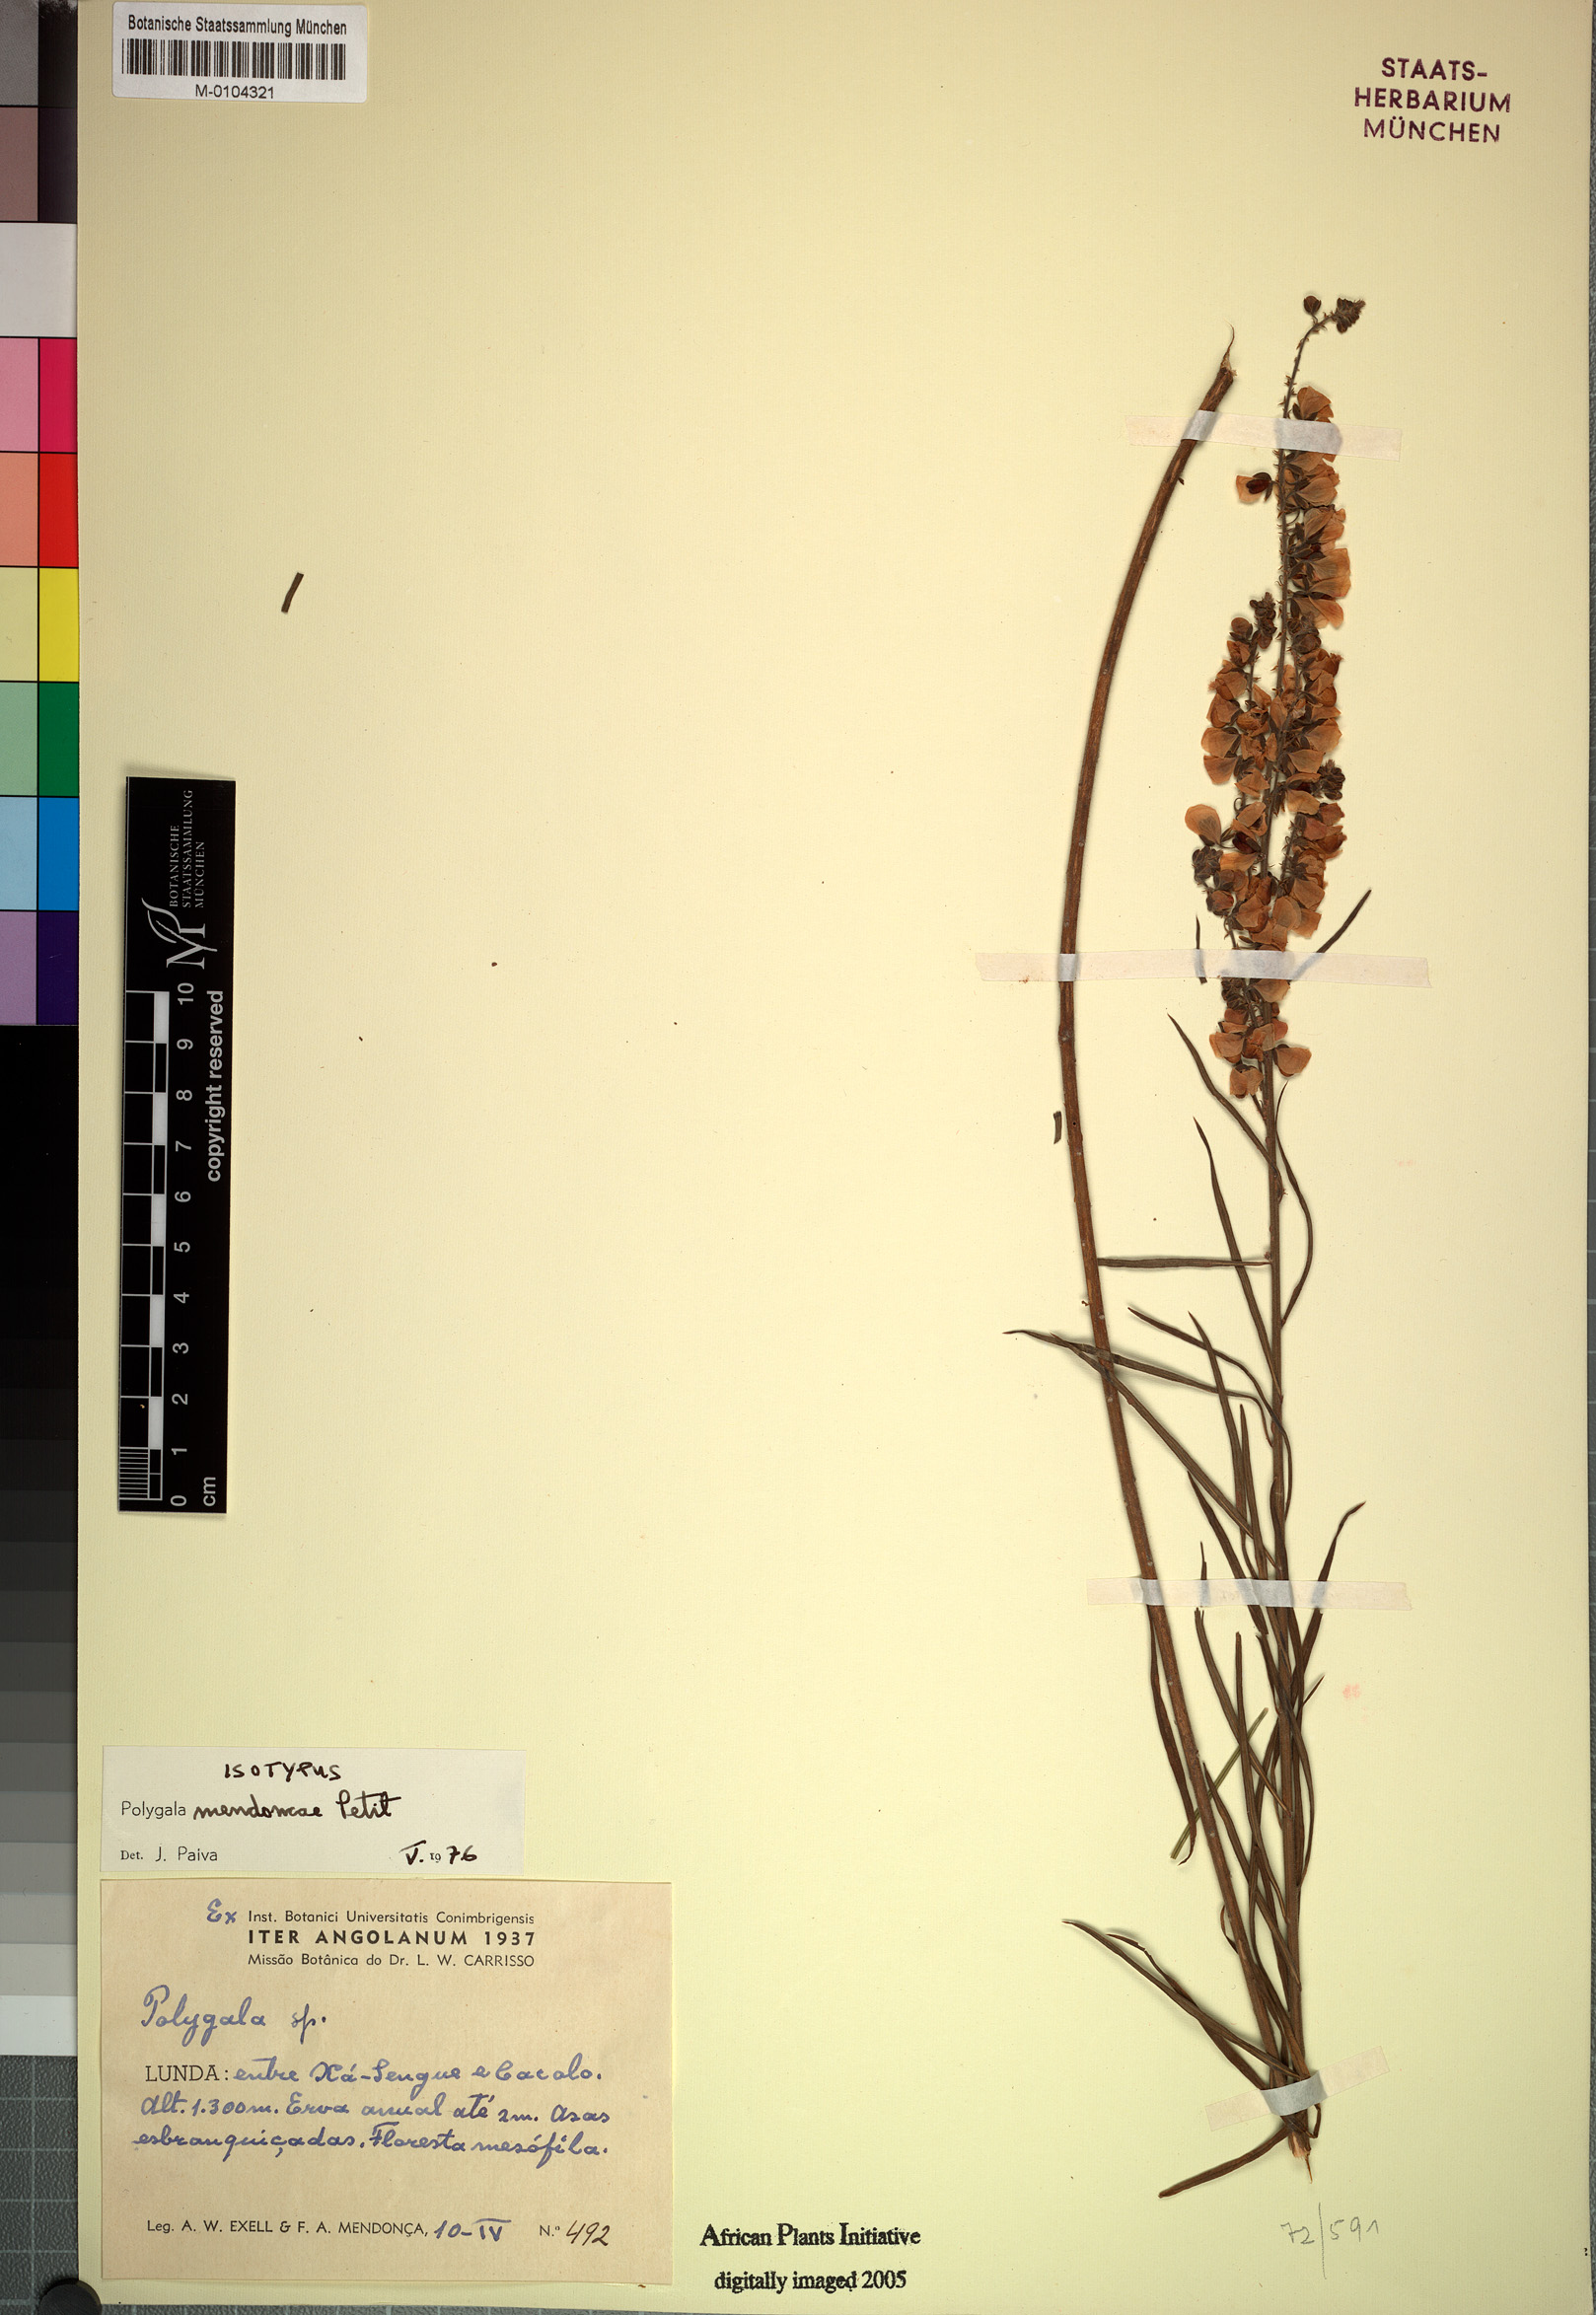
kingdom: Plantae
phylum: Tracheophyta
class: Magnoliopsida
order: Fabales
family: Polygalaceae
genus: Polygala
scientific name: Polygala mendoncae
